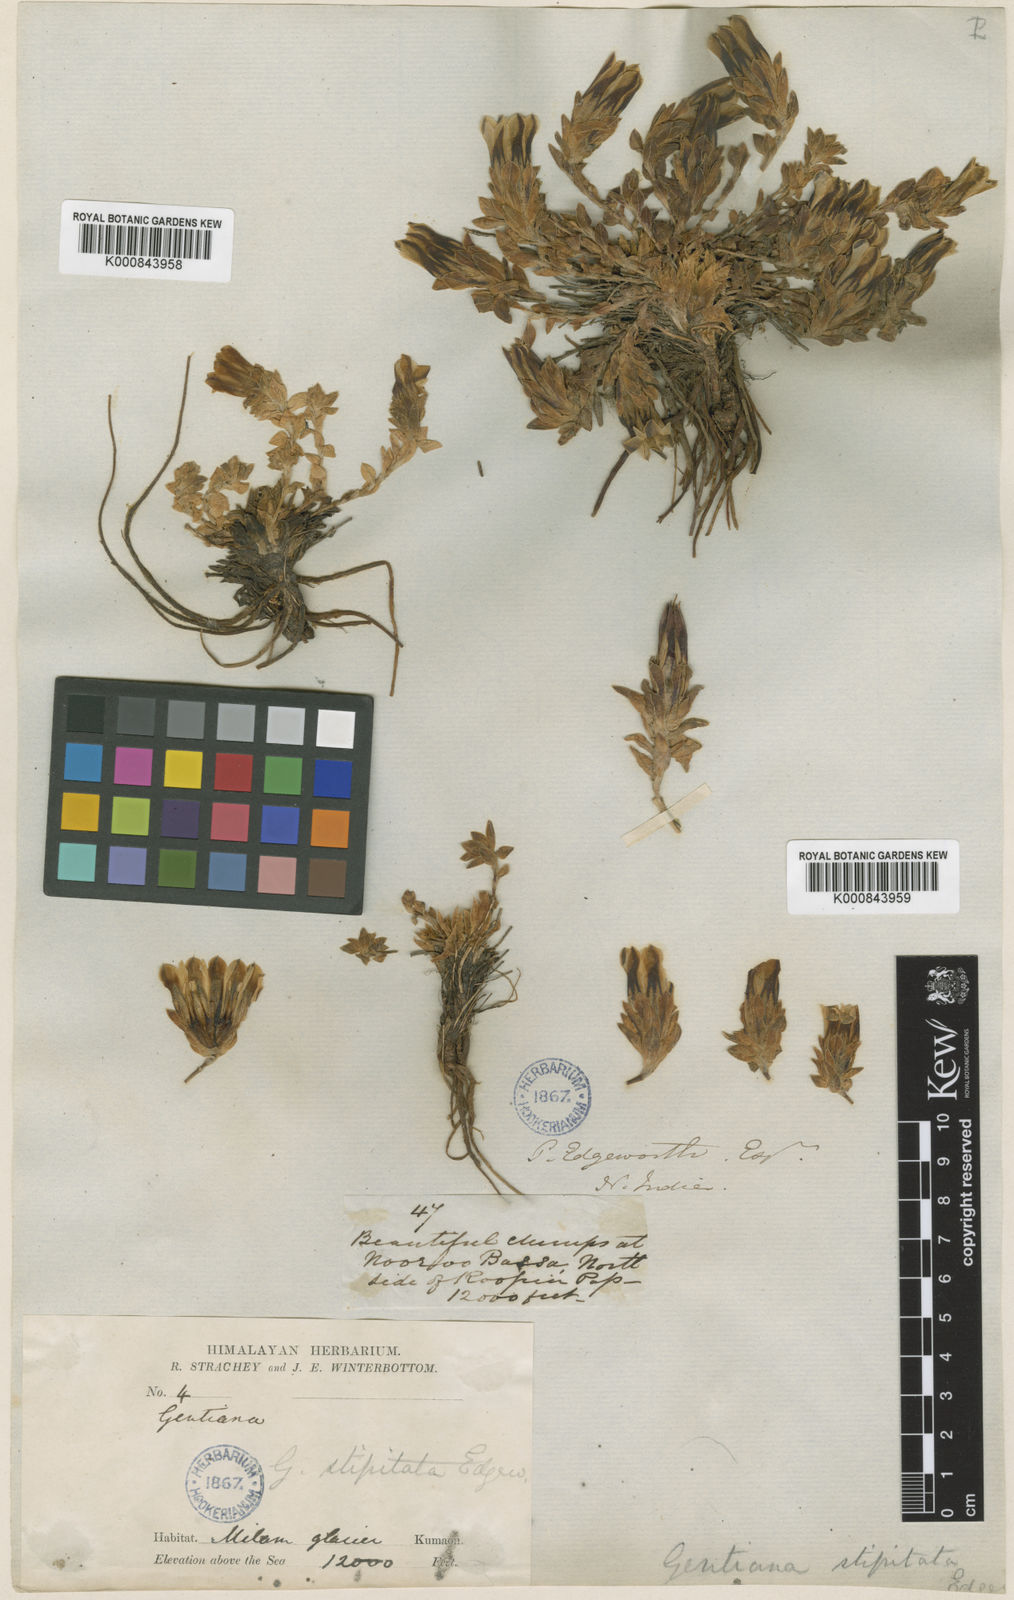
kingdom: Plantae
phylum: Tracheophyta
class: Magnoliopsida
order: Gentianales
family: Gentianaceae
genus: Gentiana
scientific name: Gentiana stipitata
